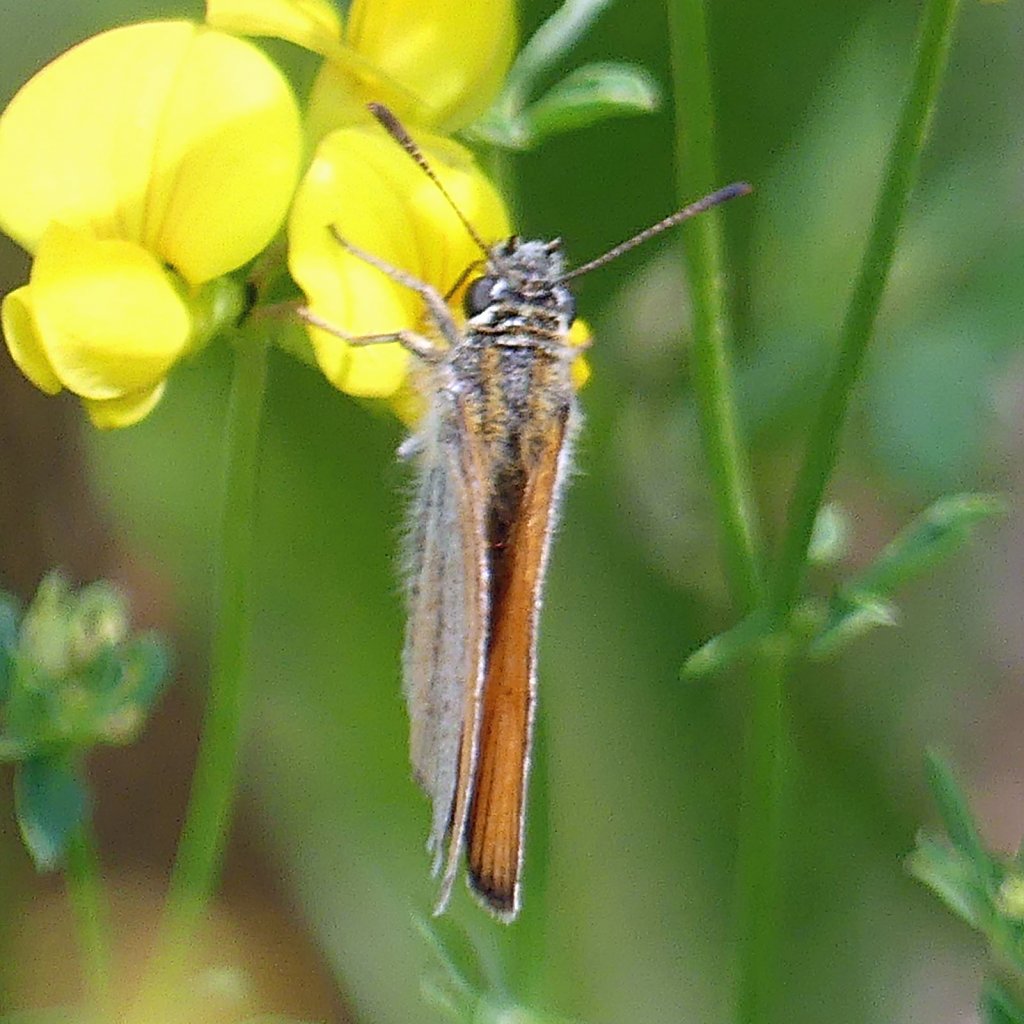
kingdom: Animalia
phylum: Arthropoda
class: Insecta
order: Lepidoptera
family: Hesperiidae
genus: Thymelicus
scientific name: Thymelicus lineola
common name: European Skipper
